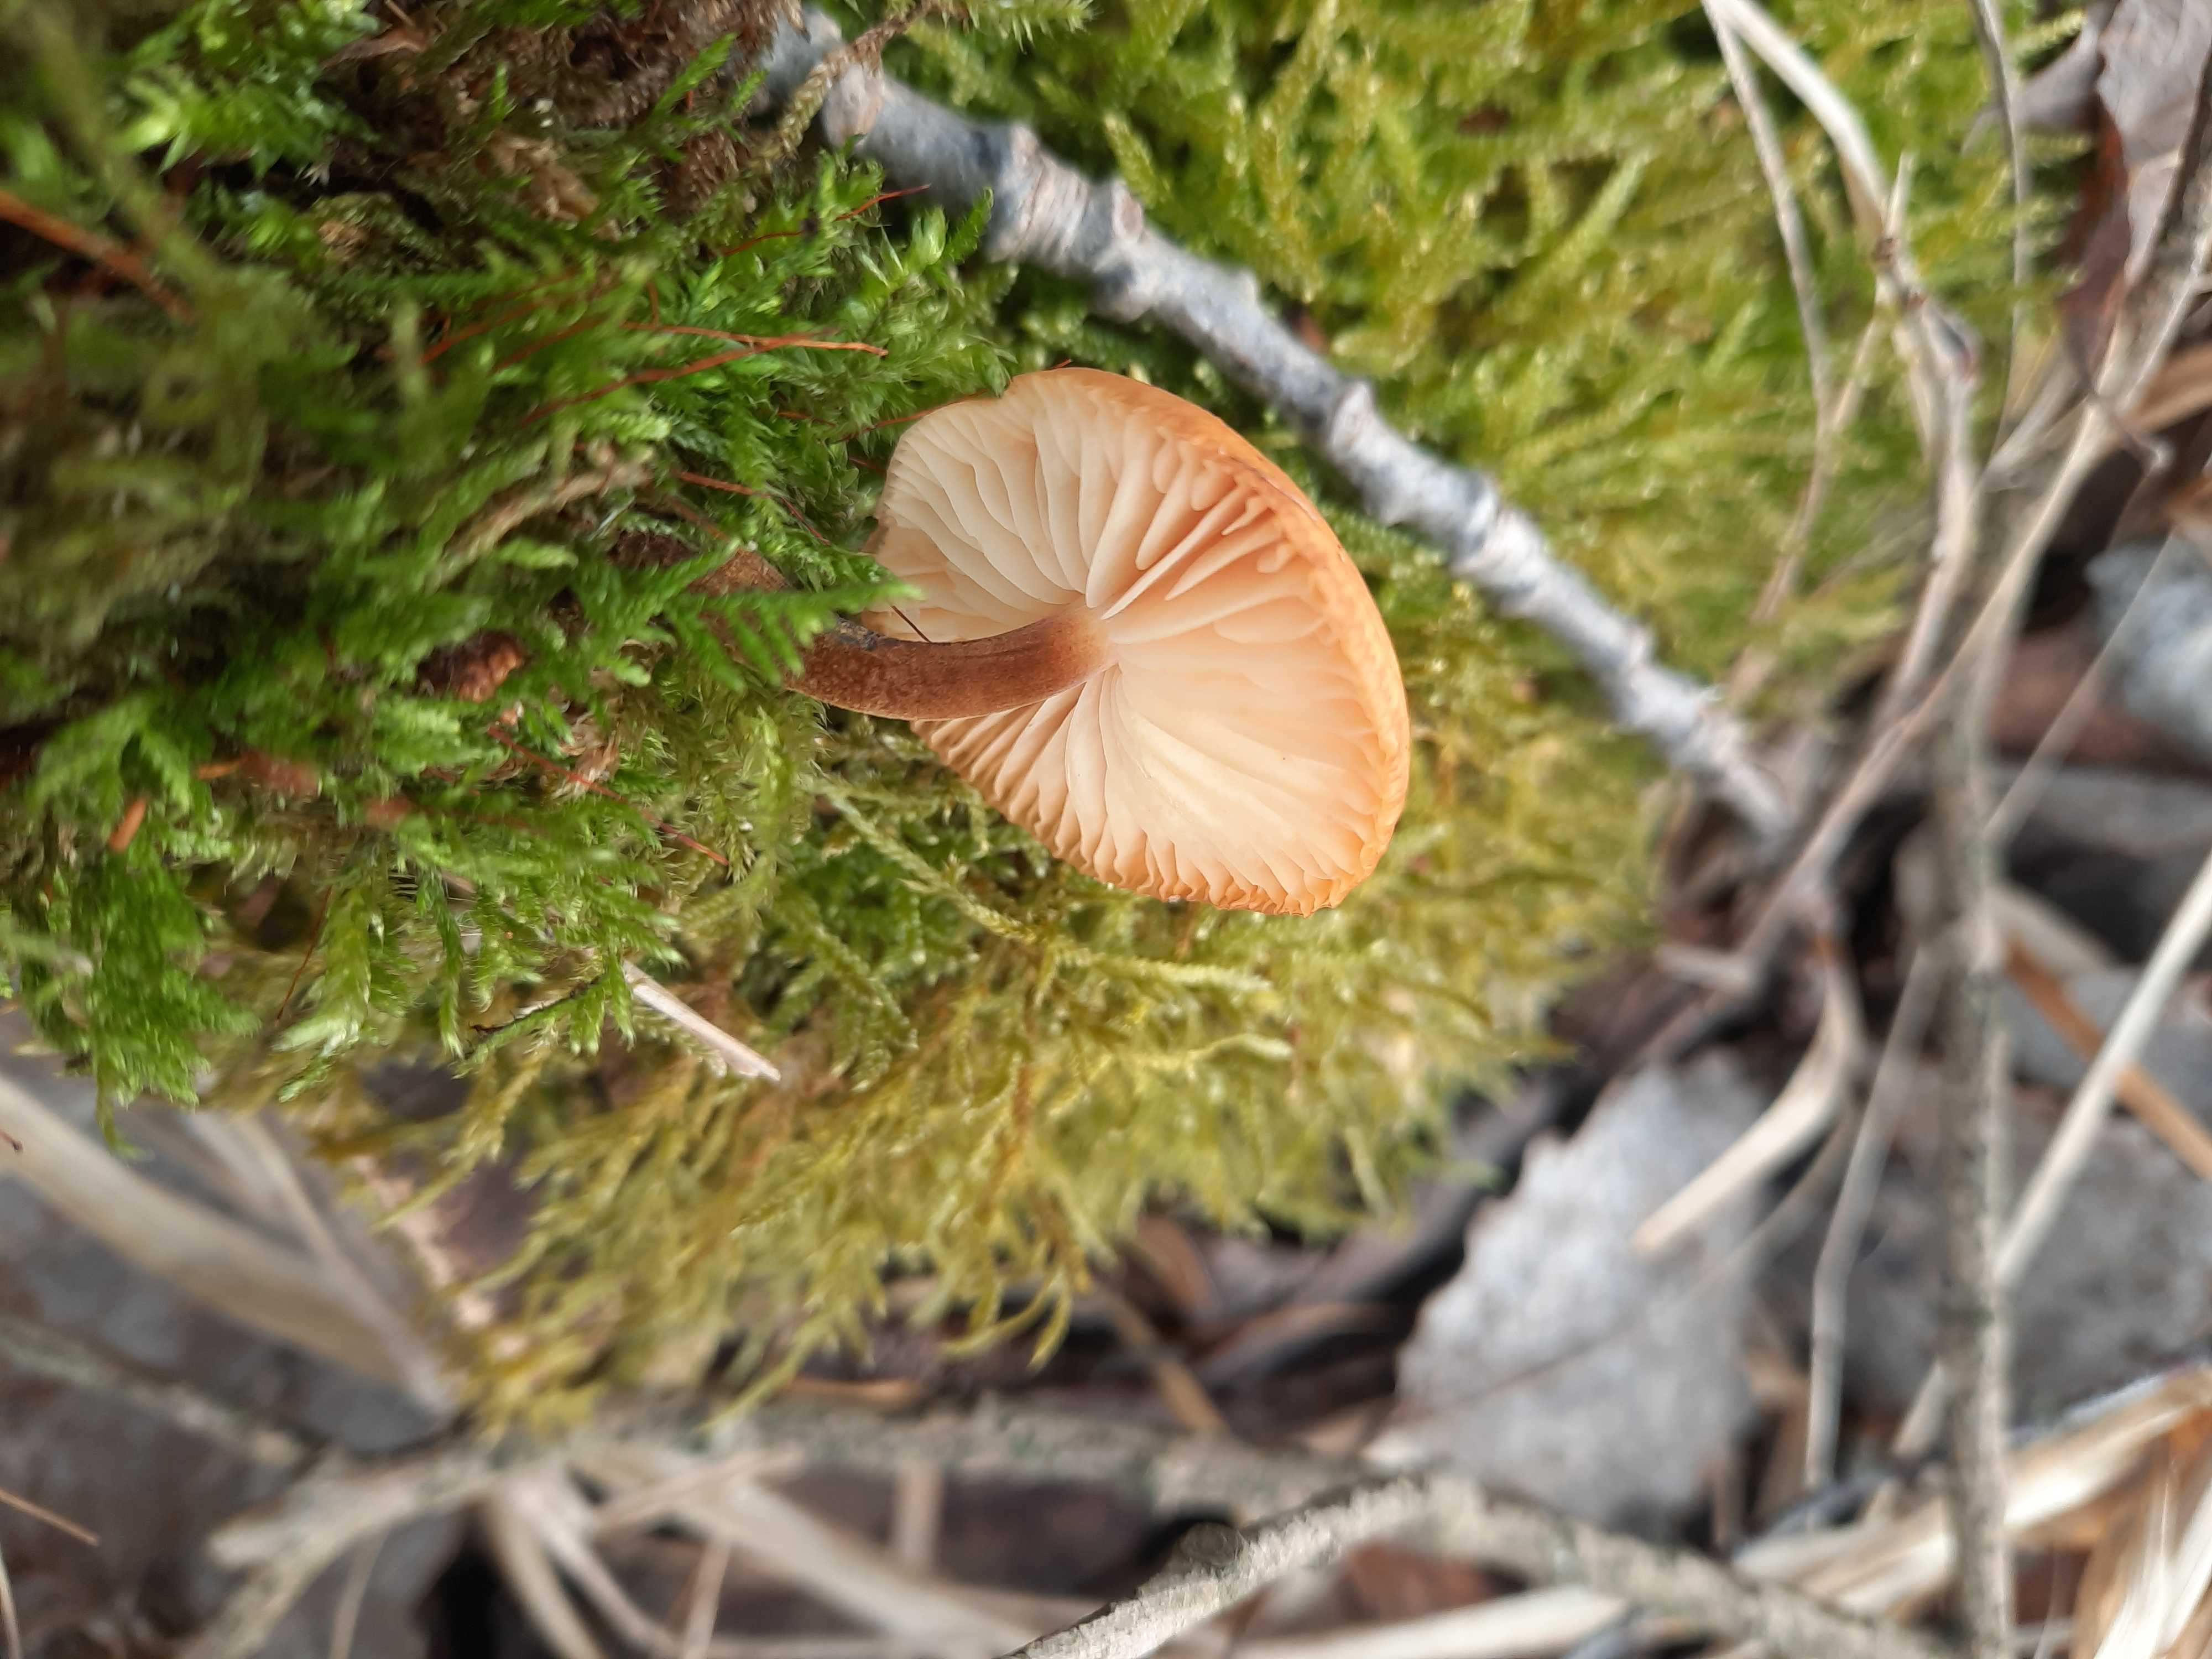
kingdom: Fungi
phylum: Basidiomycota
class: Agaricomycetes
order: Agaricales
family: Physalacriaceae
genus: Flammulina
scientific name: Flammulina
